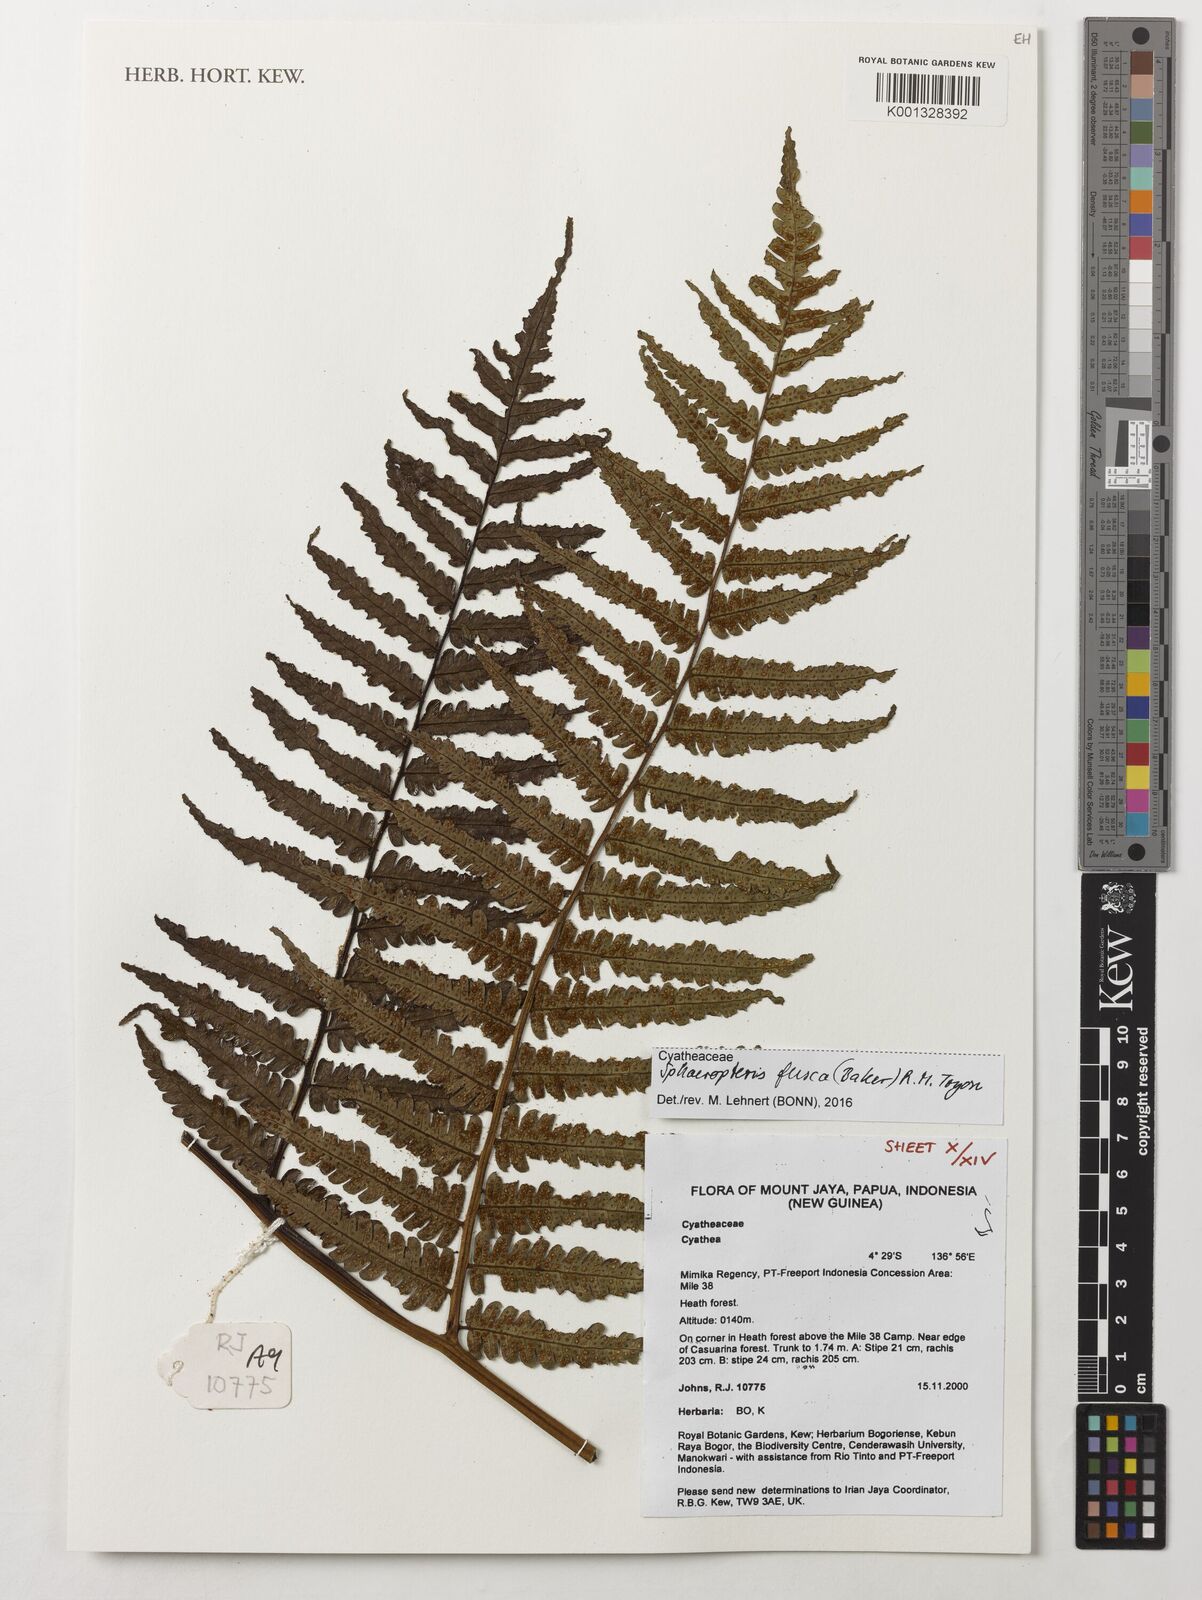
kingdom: Plantae
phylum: Tracheophyta
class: Polypodiopsida
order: Cyatheales
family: Cyatheaceae
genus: Sphaeropteris
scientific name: Sphaeropteris fusca
